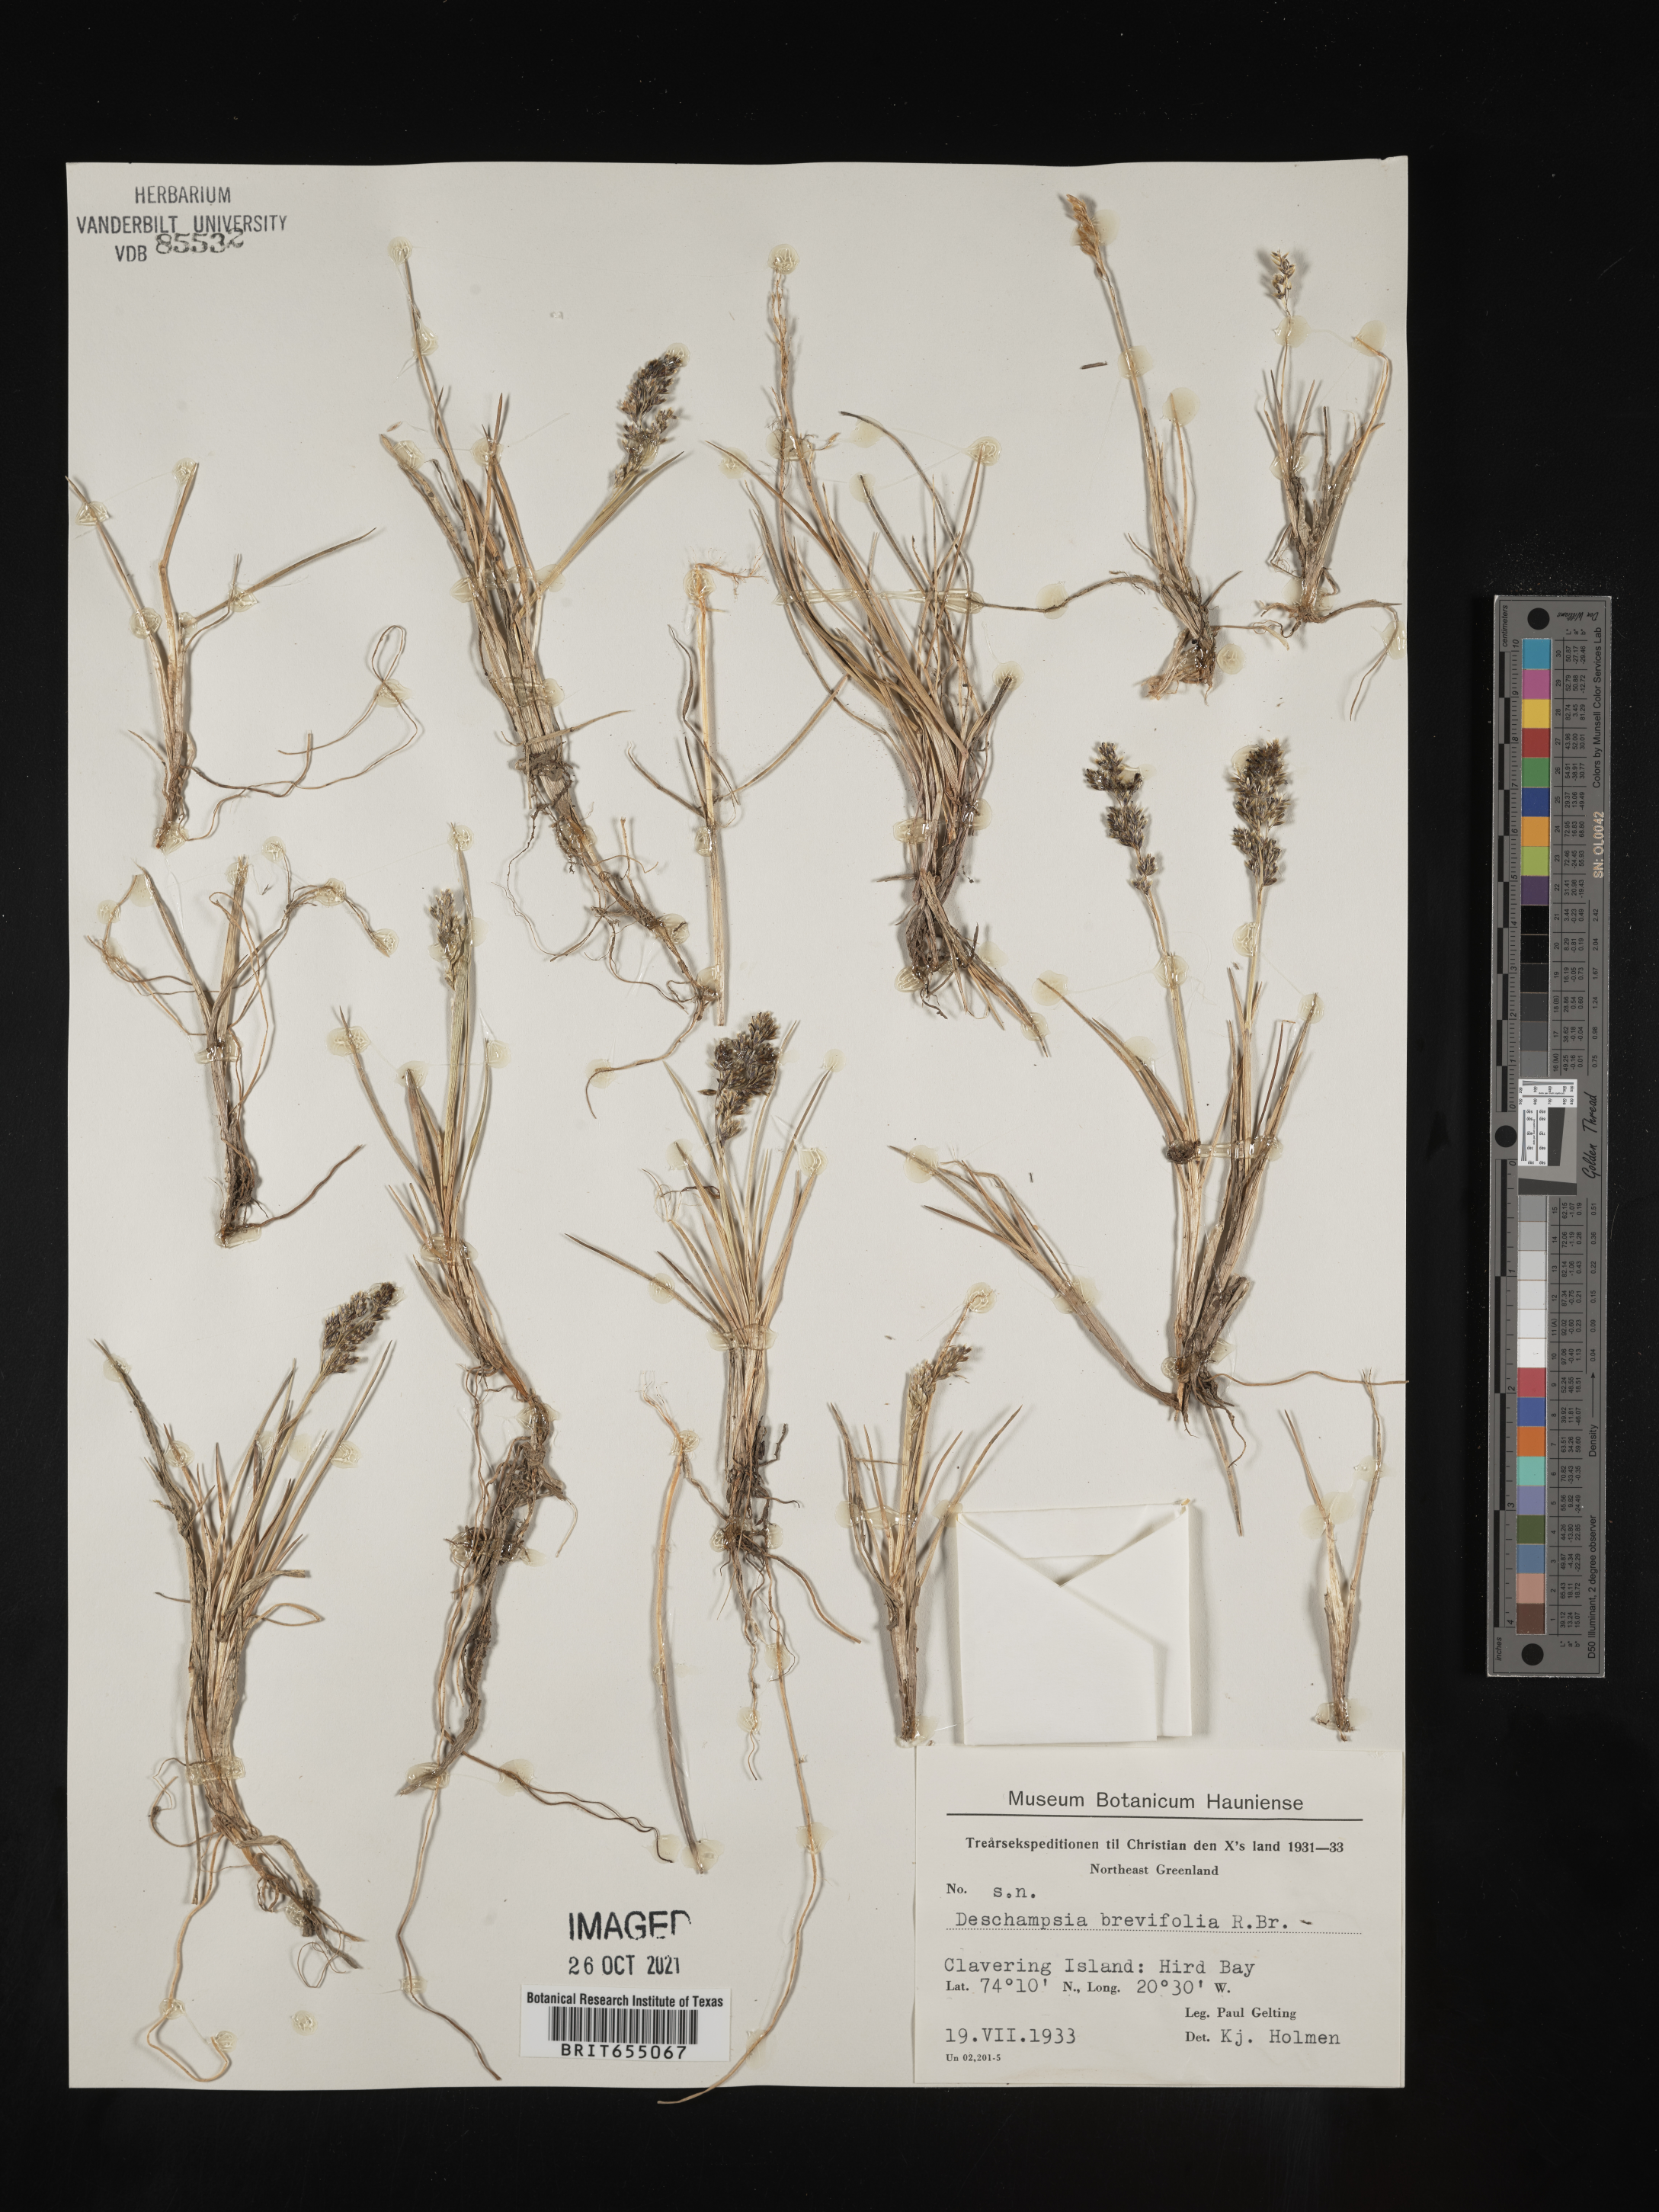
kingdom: Plantae
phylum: Tracheophyta
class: Liliopsida
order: Poales
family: Poaceae
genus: Deschampsia
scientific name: Deschampsia
